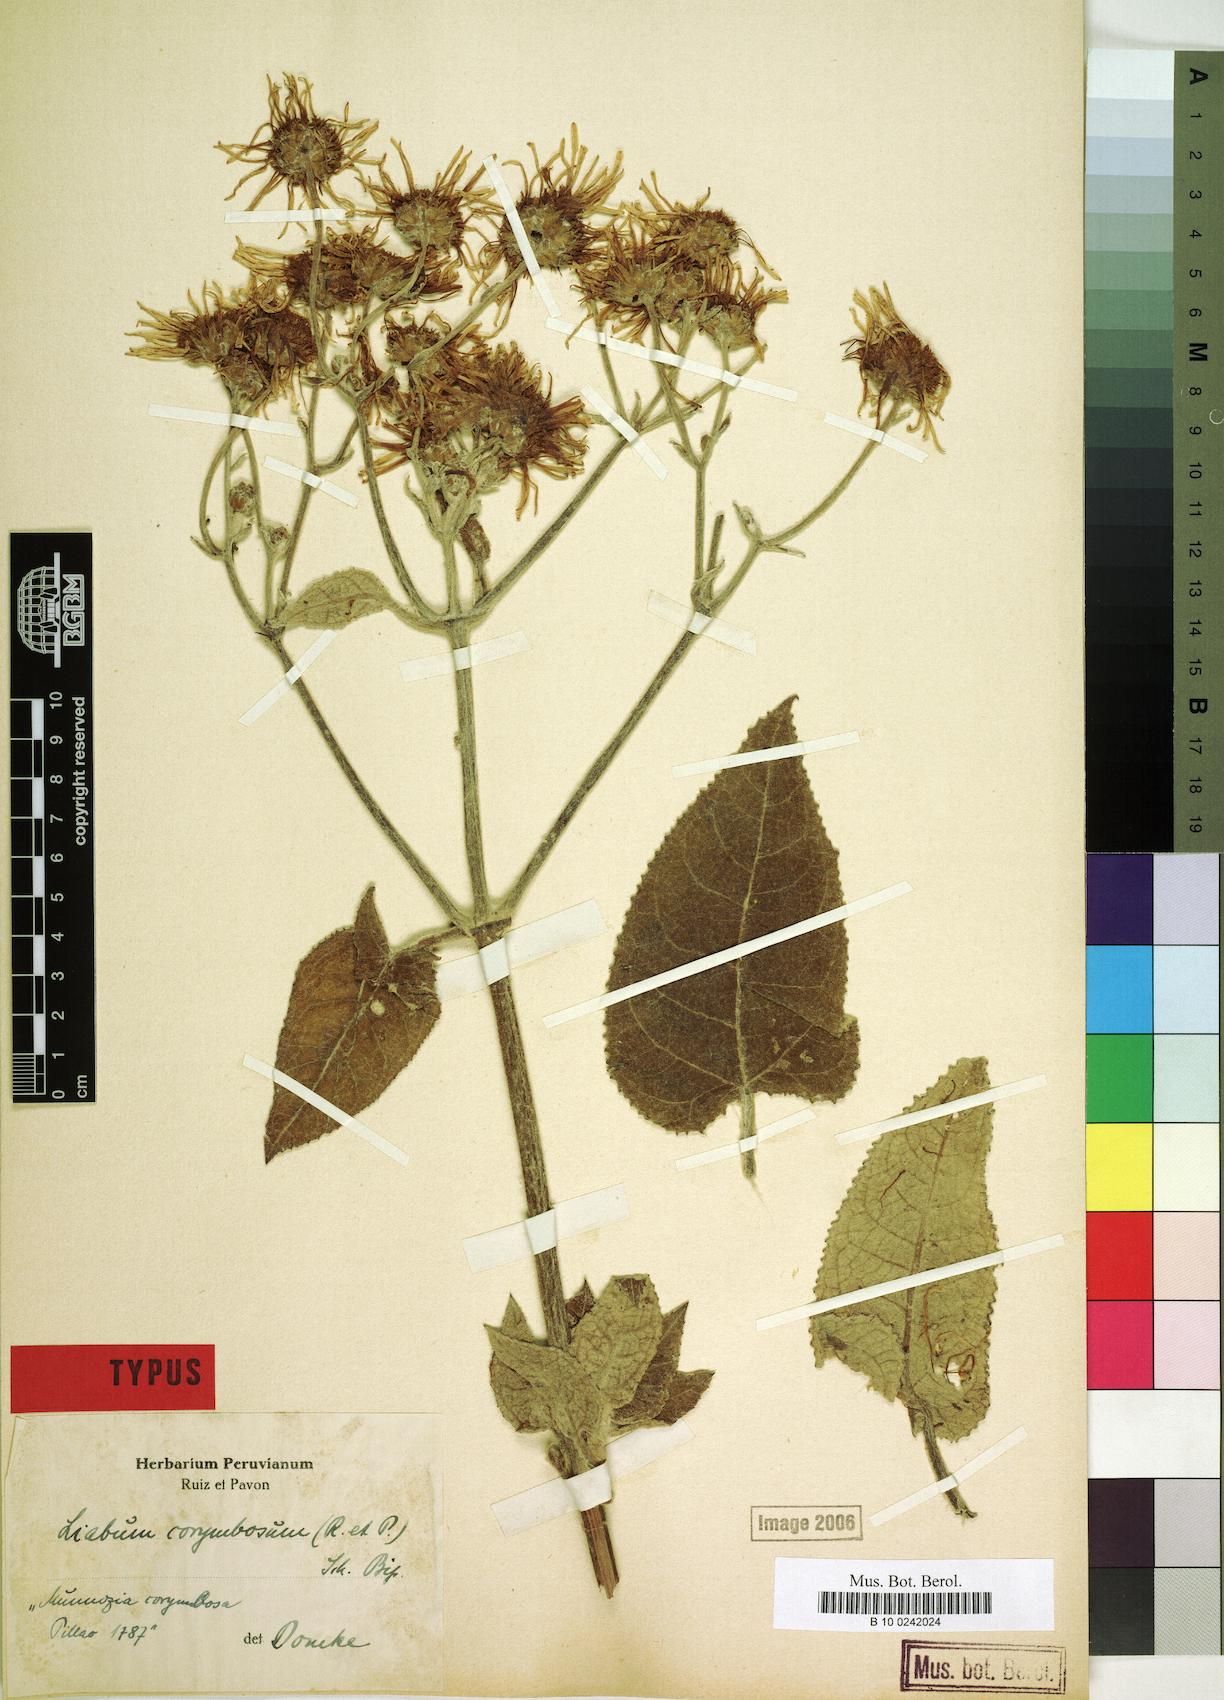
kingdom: Plantae
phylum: Tracheophyta
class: Magnoliopsida
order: Asterales
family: Asteraceae
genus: Munnozia
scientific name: Munnozia maronii
